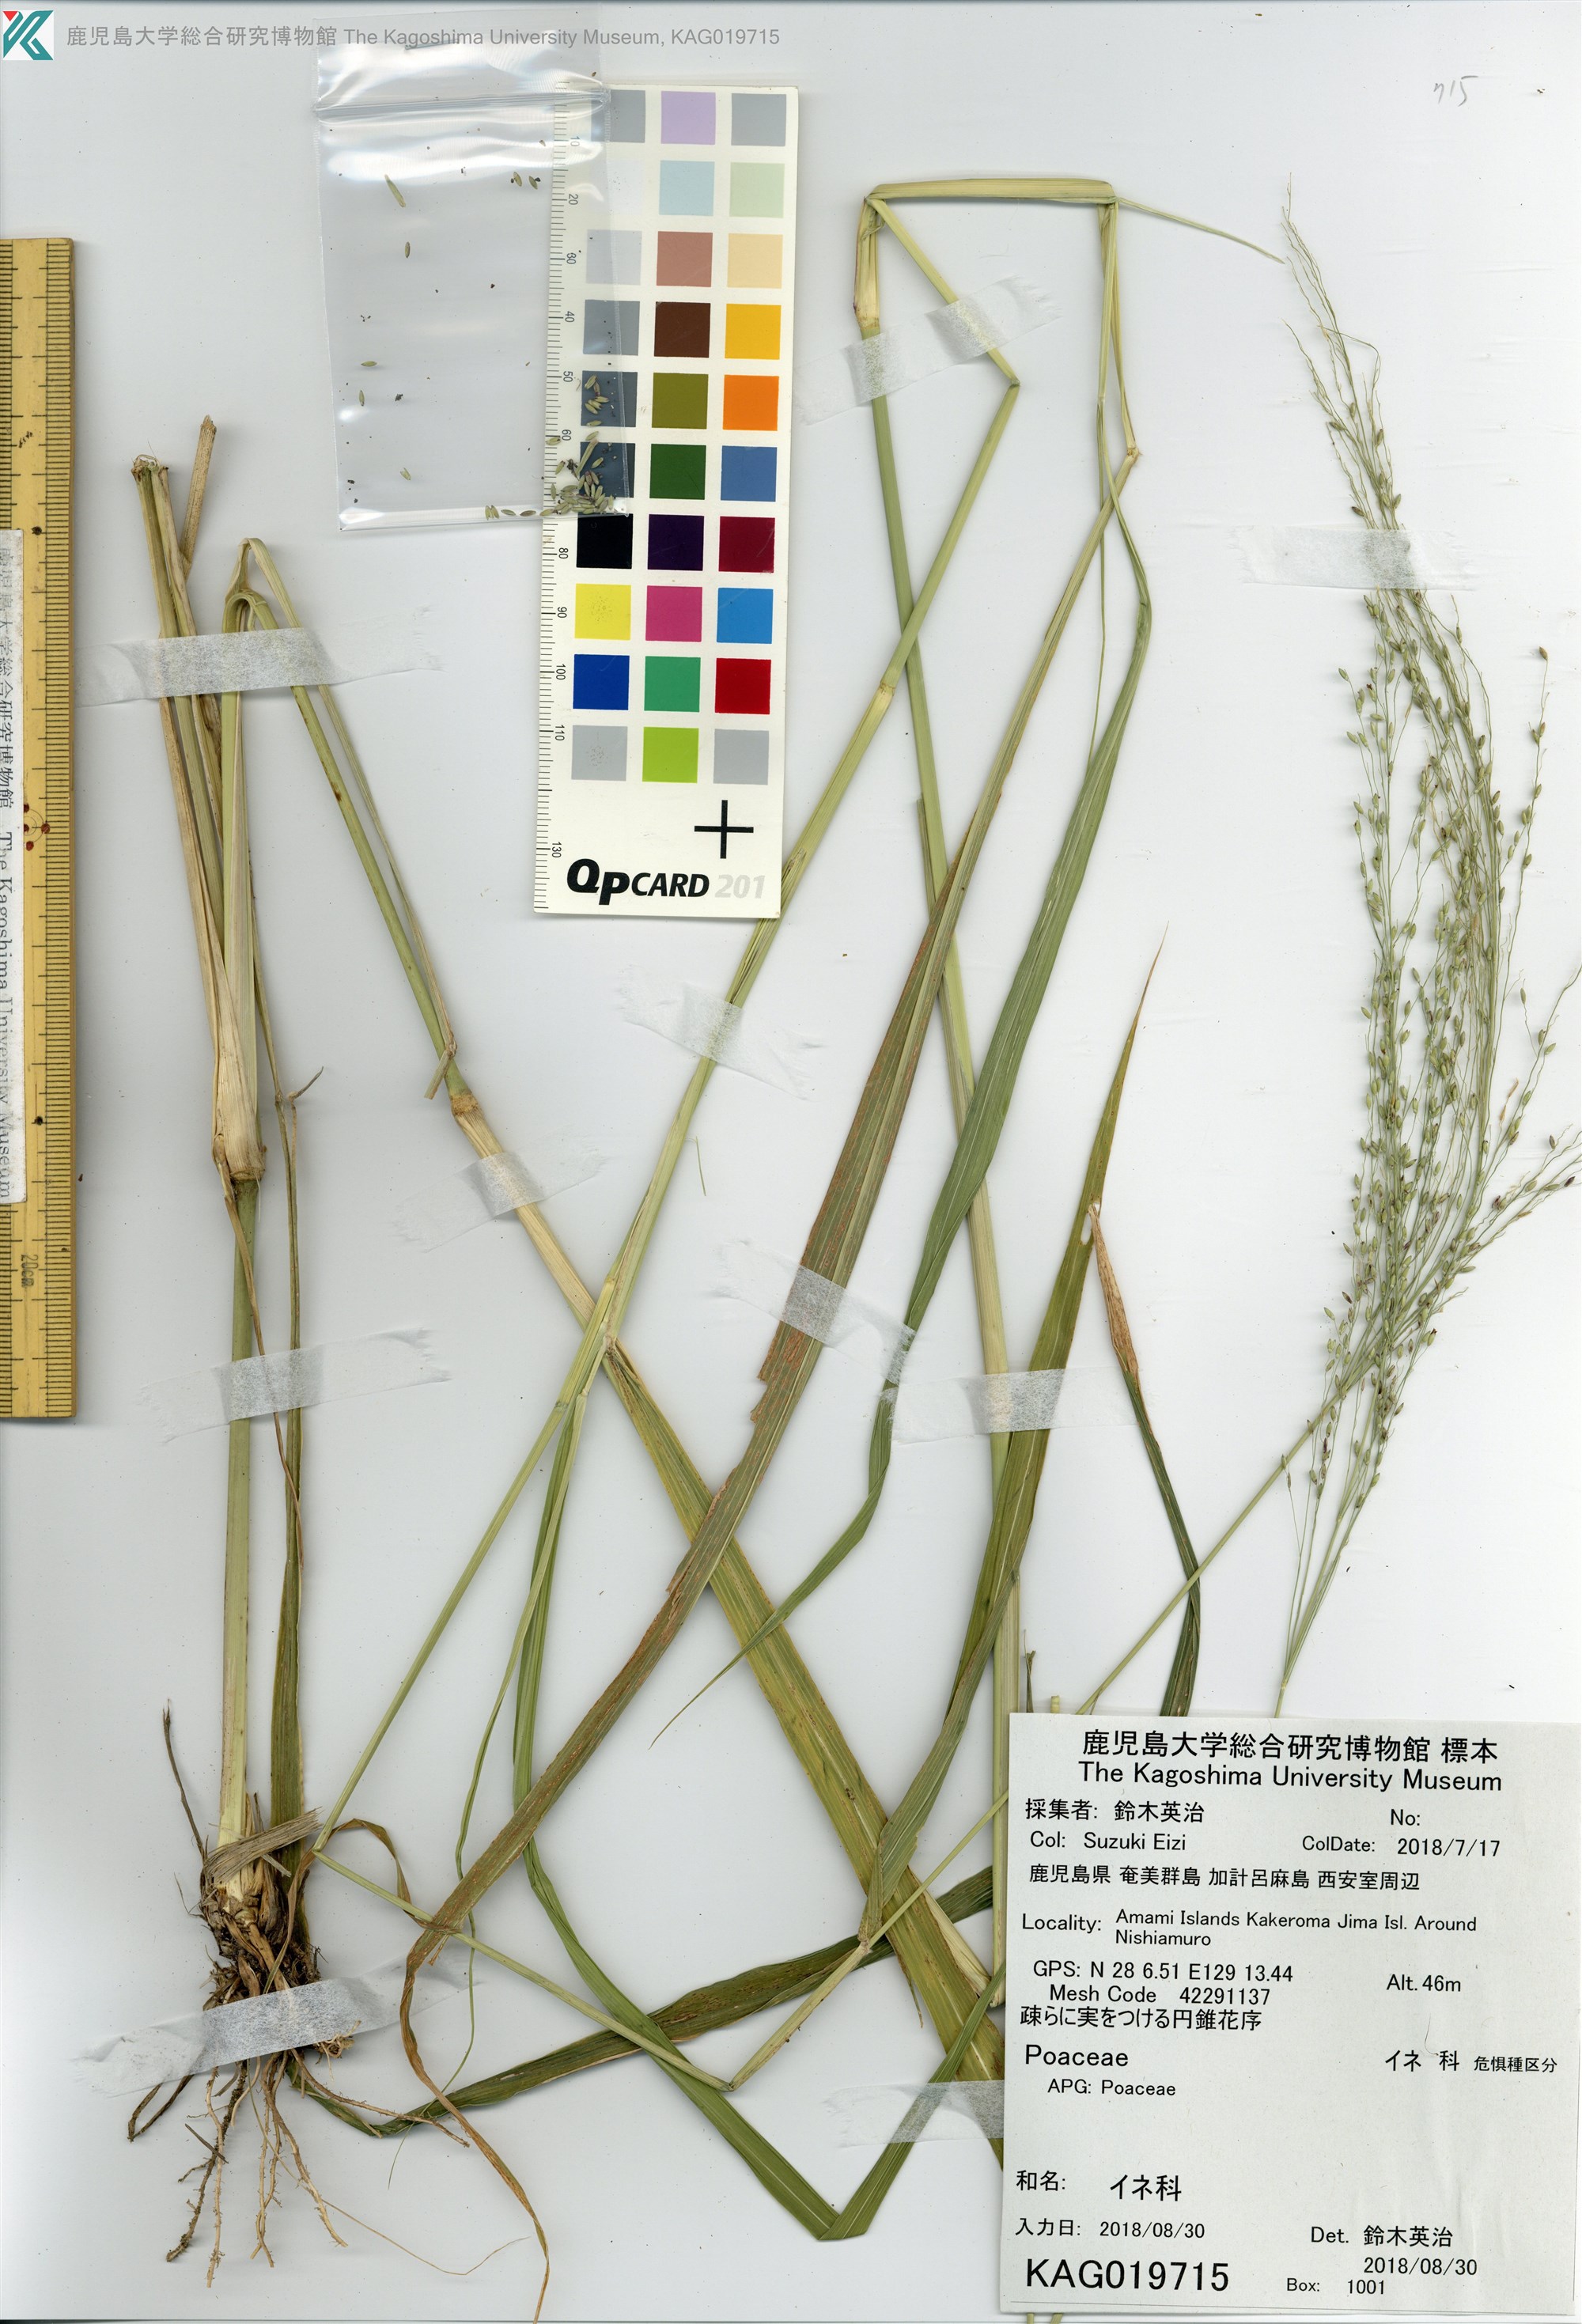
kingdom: Plantae
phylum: Tracheophyta
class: Liliopsida
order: Poales
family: Poaceae
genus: Panicum
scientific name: Panicum bisulcatum
